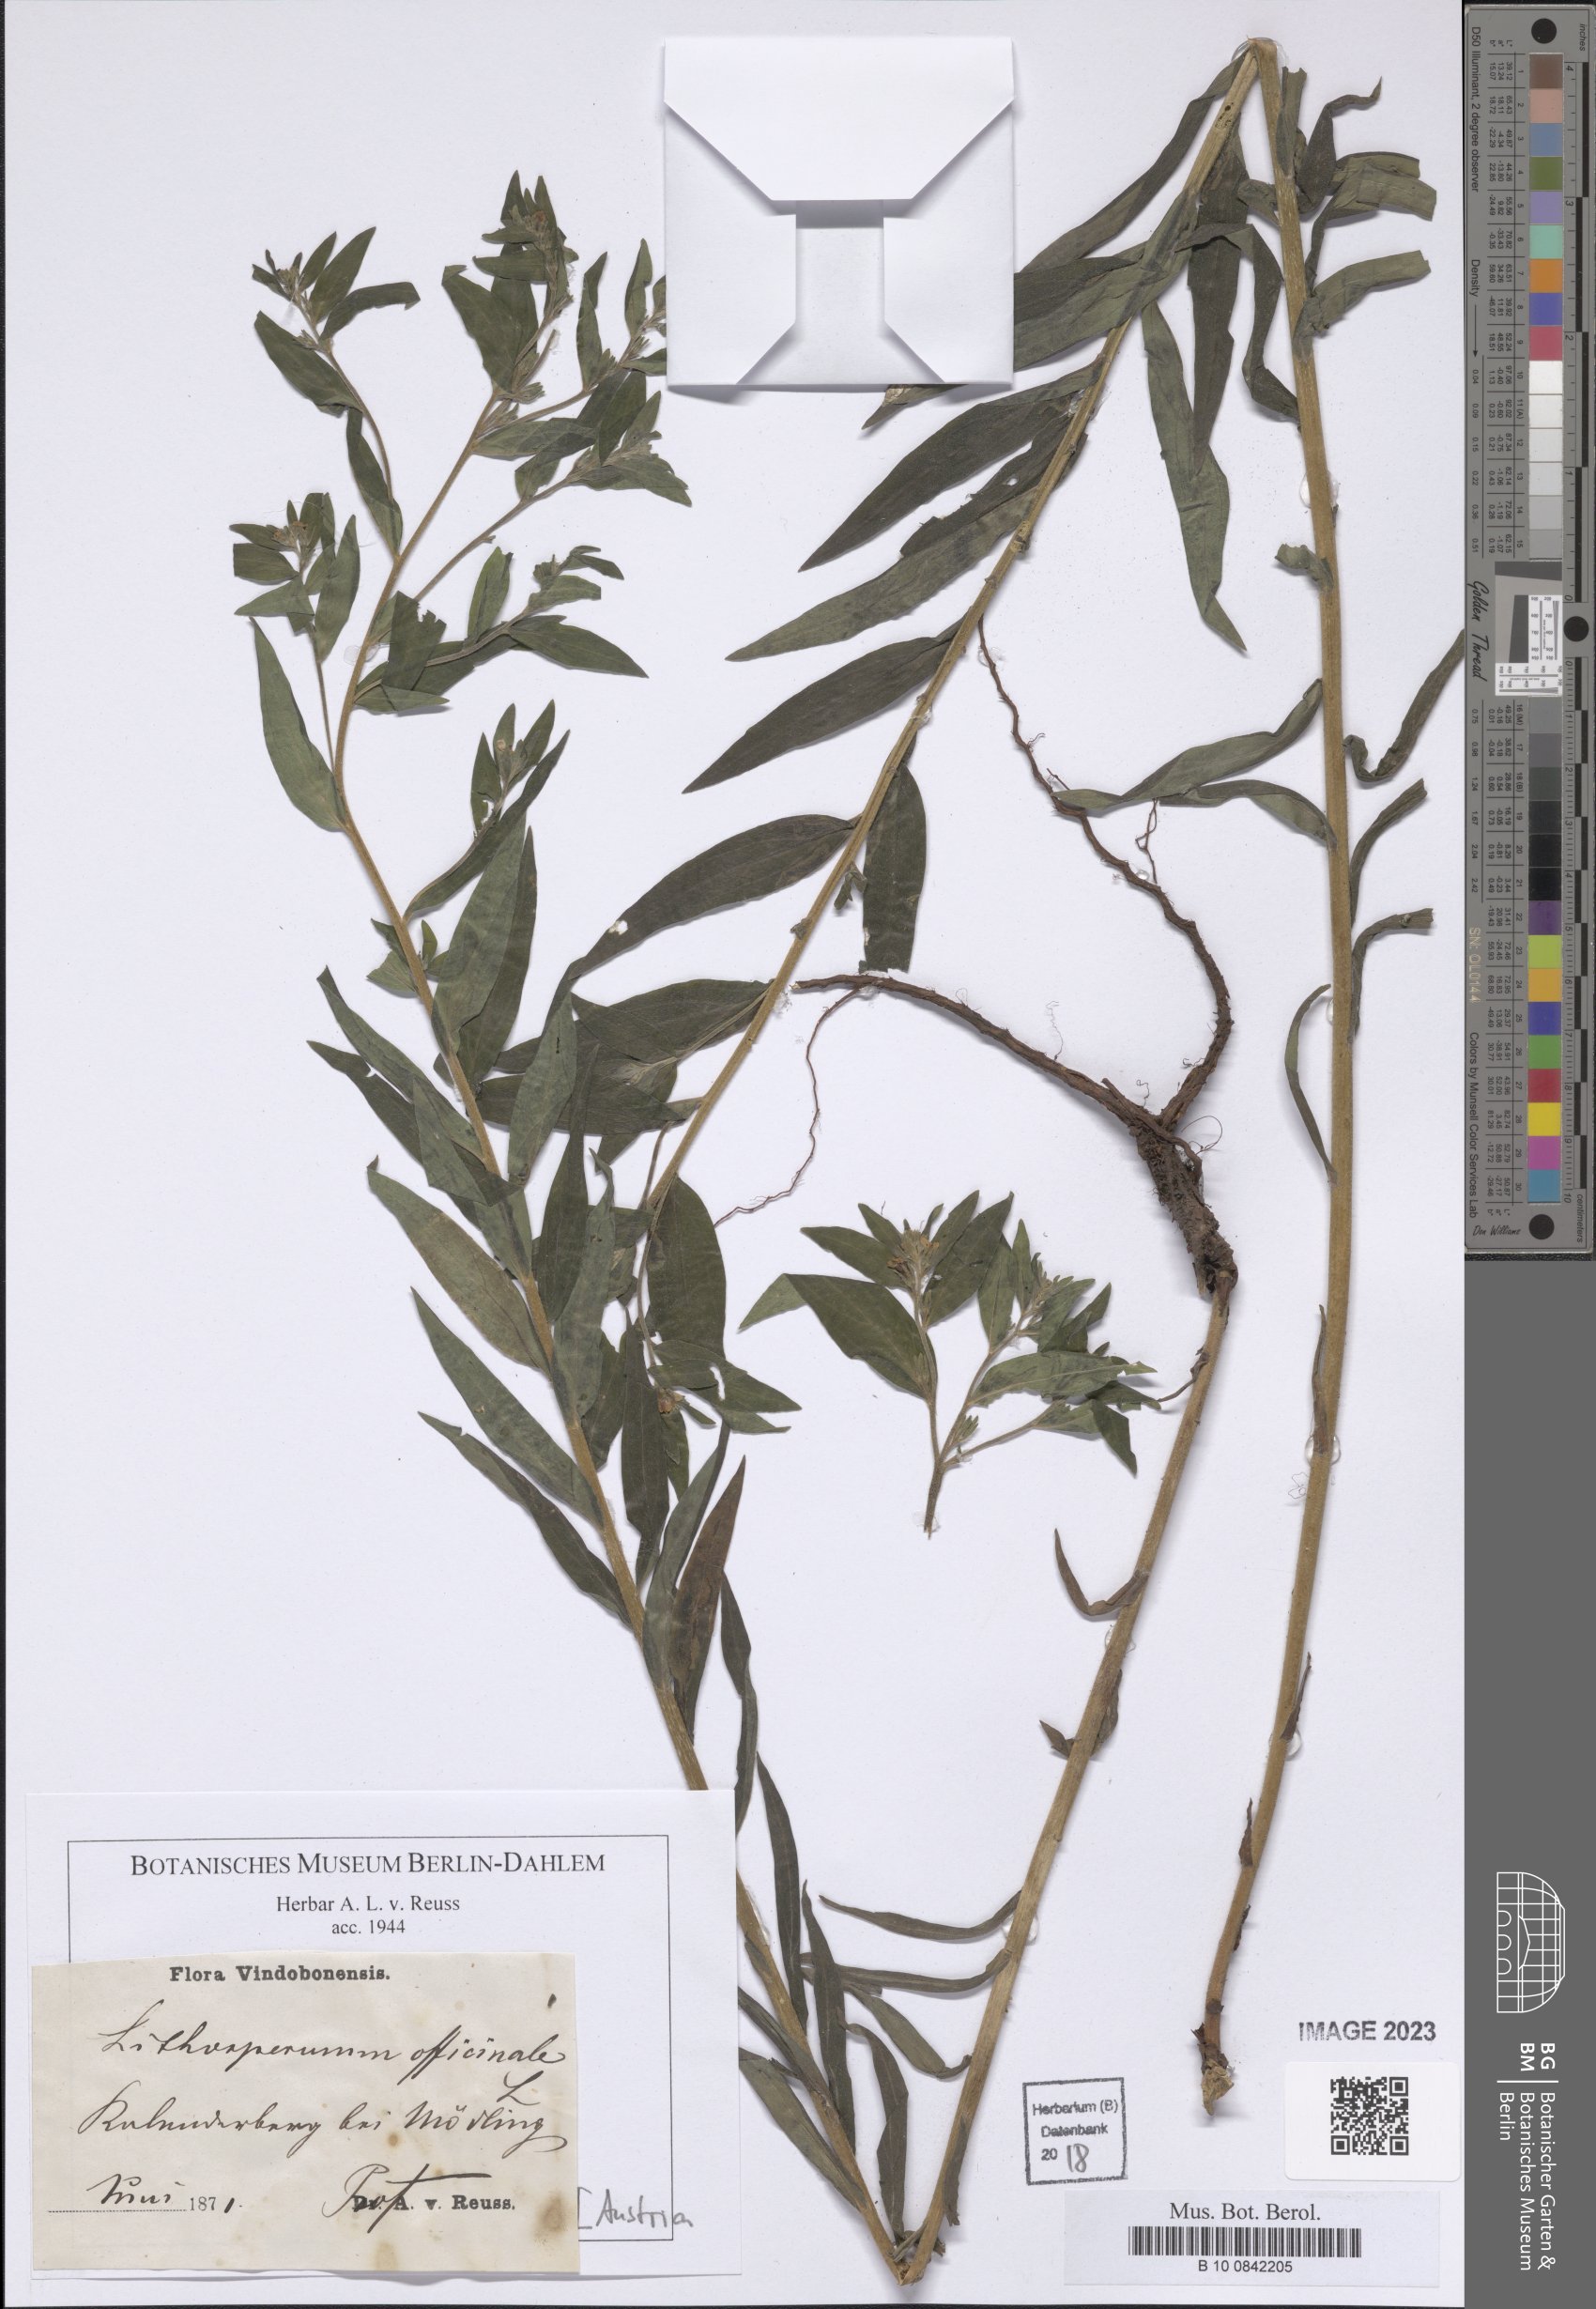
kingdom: Plantae
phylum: Tracheophyta
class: Magnoliopsida
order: Boraginales
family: Boraginaceae
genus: Lithospermum
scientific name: Lithospermum officinale
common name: Common gromwell
